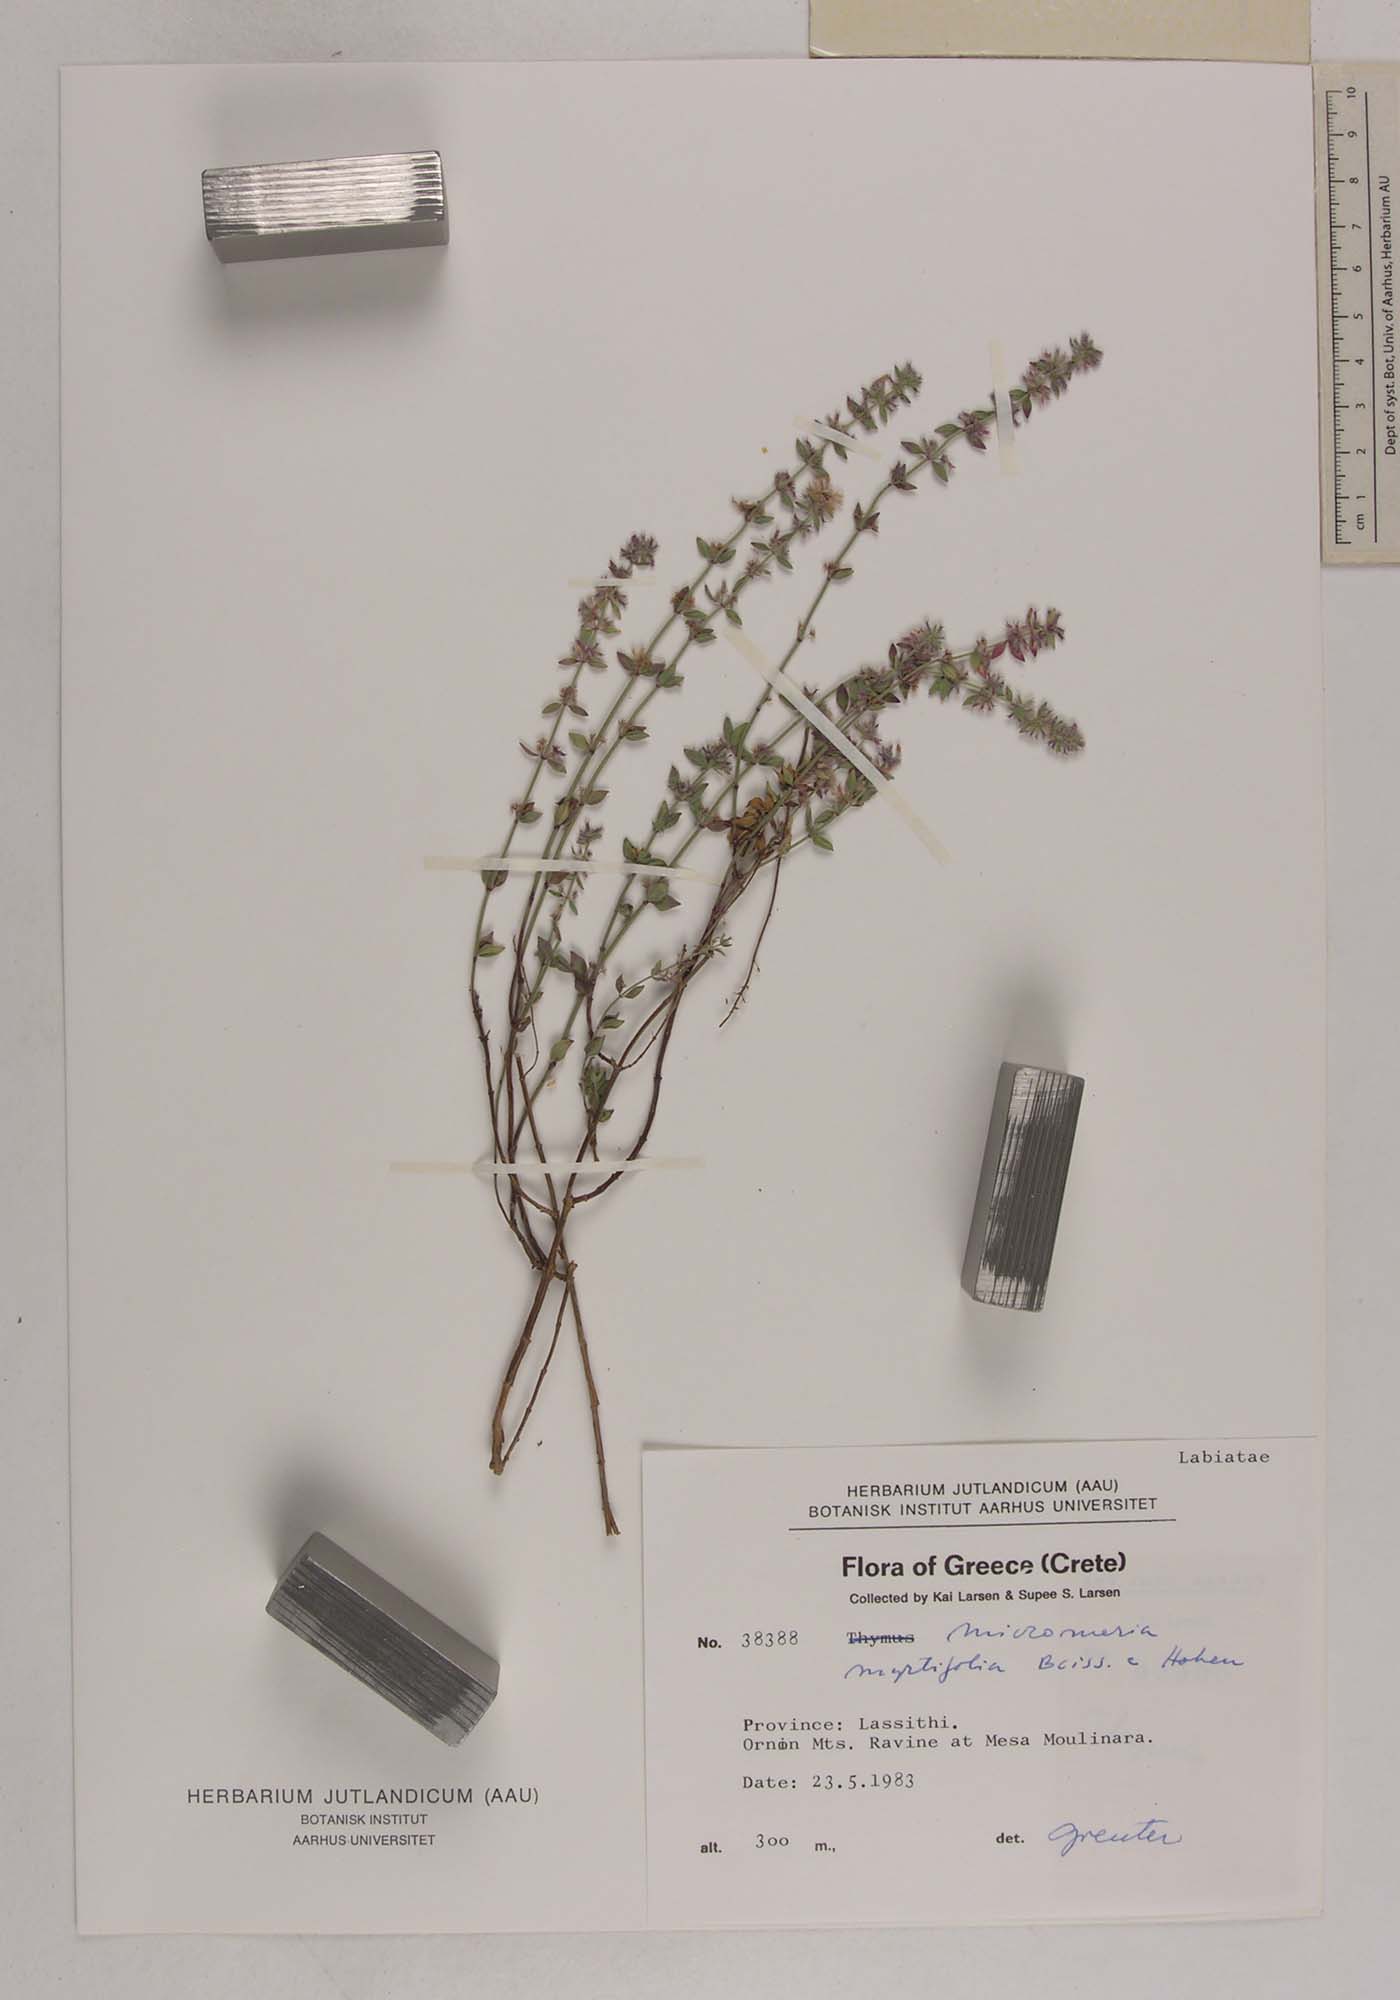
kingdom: Plantae
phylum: Tracheophyta
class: Magnoliopsida
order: Lamiales
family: Lamiaceae
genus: Micromeria
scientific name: Micromeria myrtifolia
